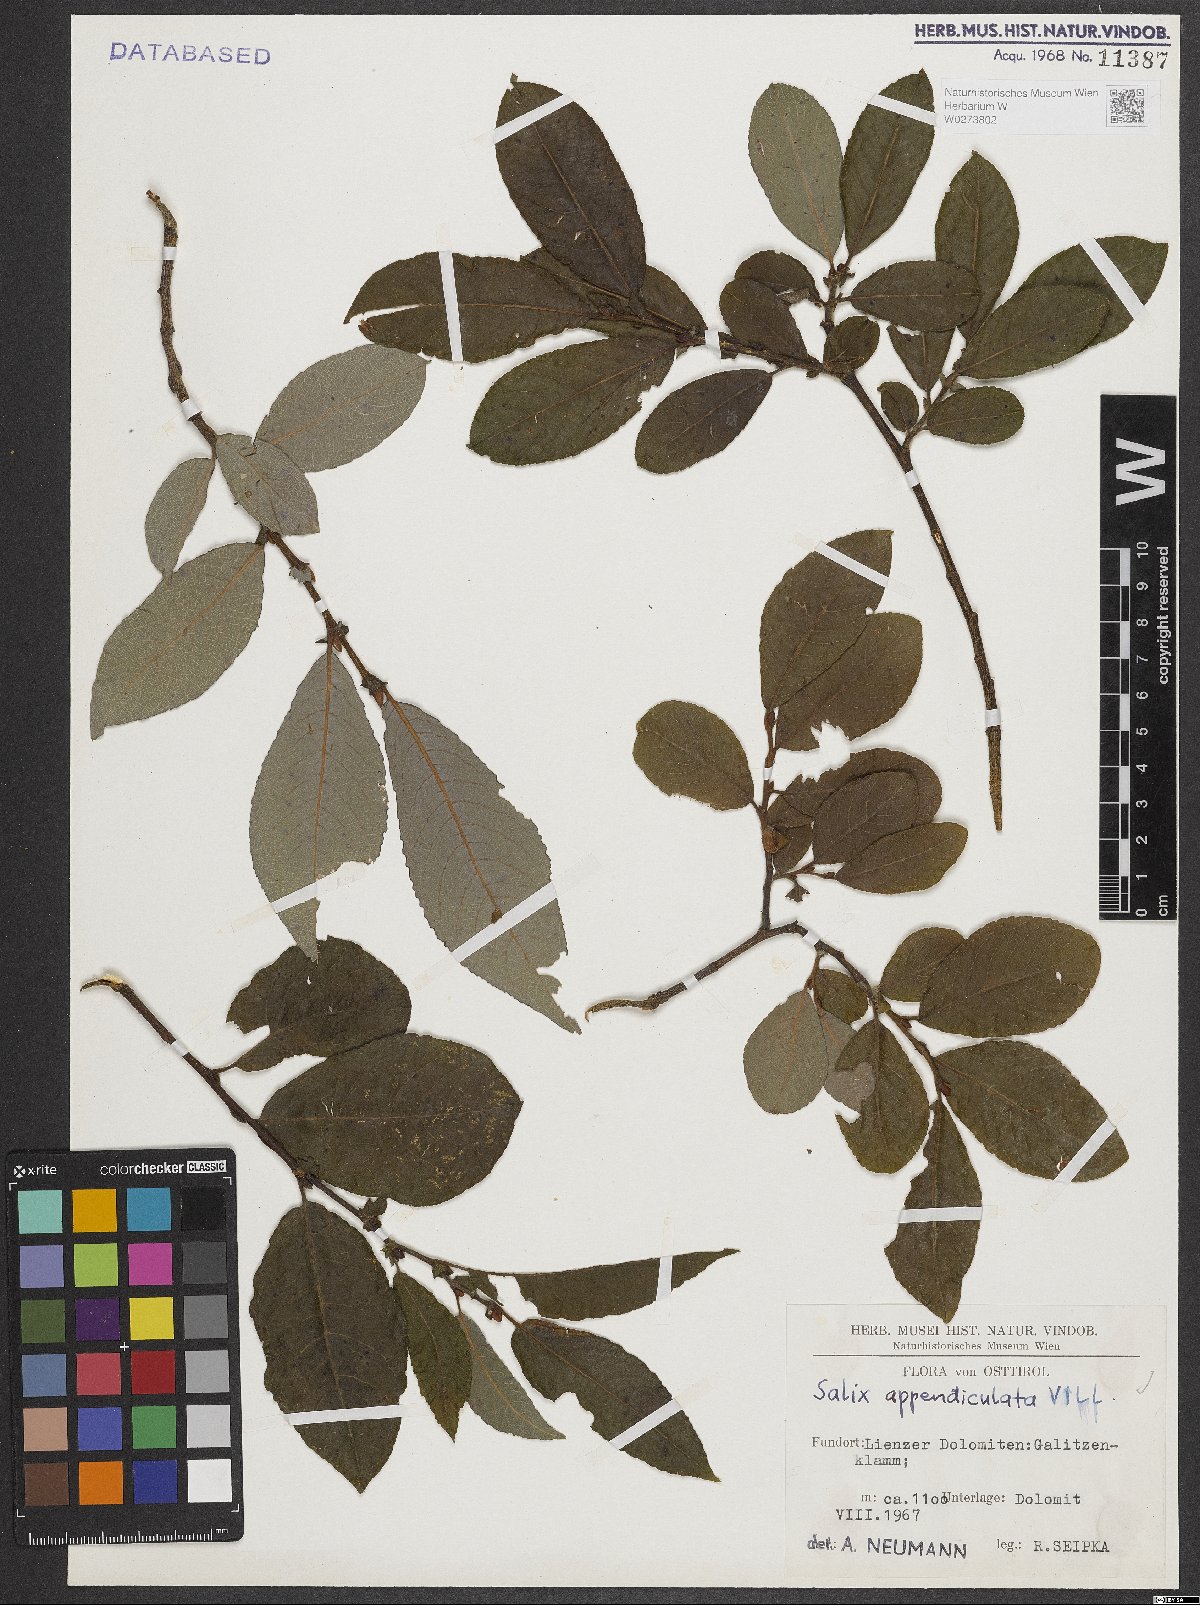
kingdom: Plantae
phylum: Tracheophyta
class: Magnoliopsida
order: Malpighiales
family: Salicaceae
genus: Salix
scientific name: Salix appendiculata
